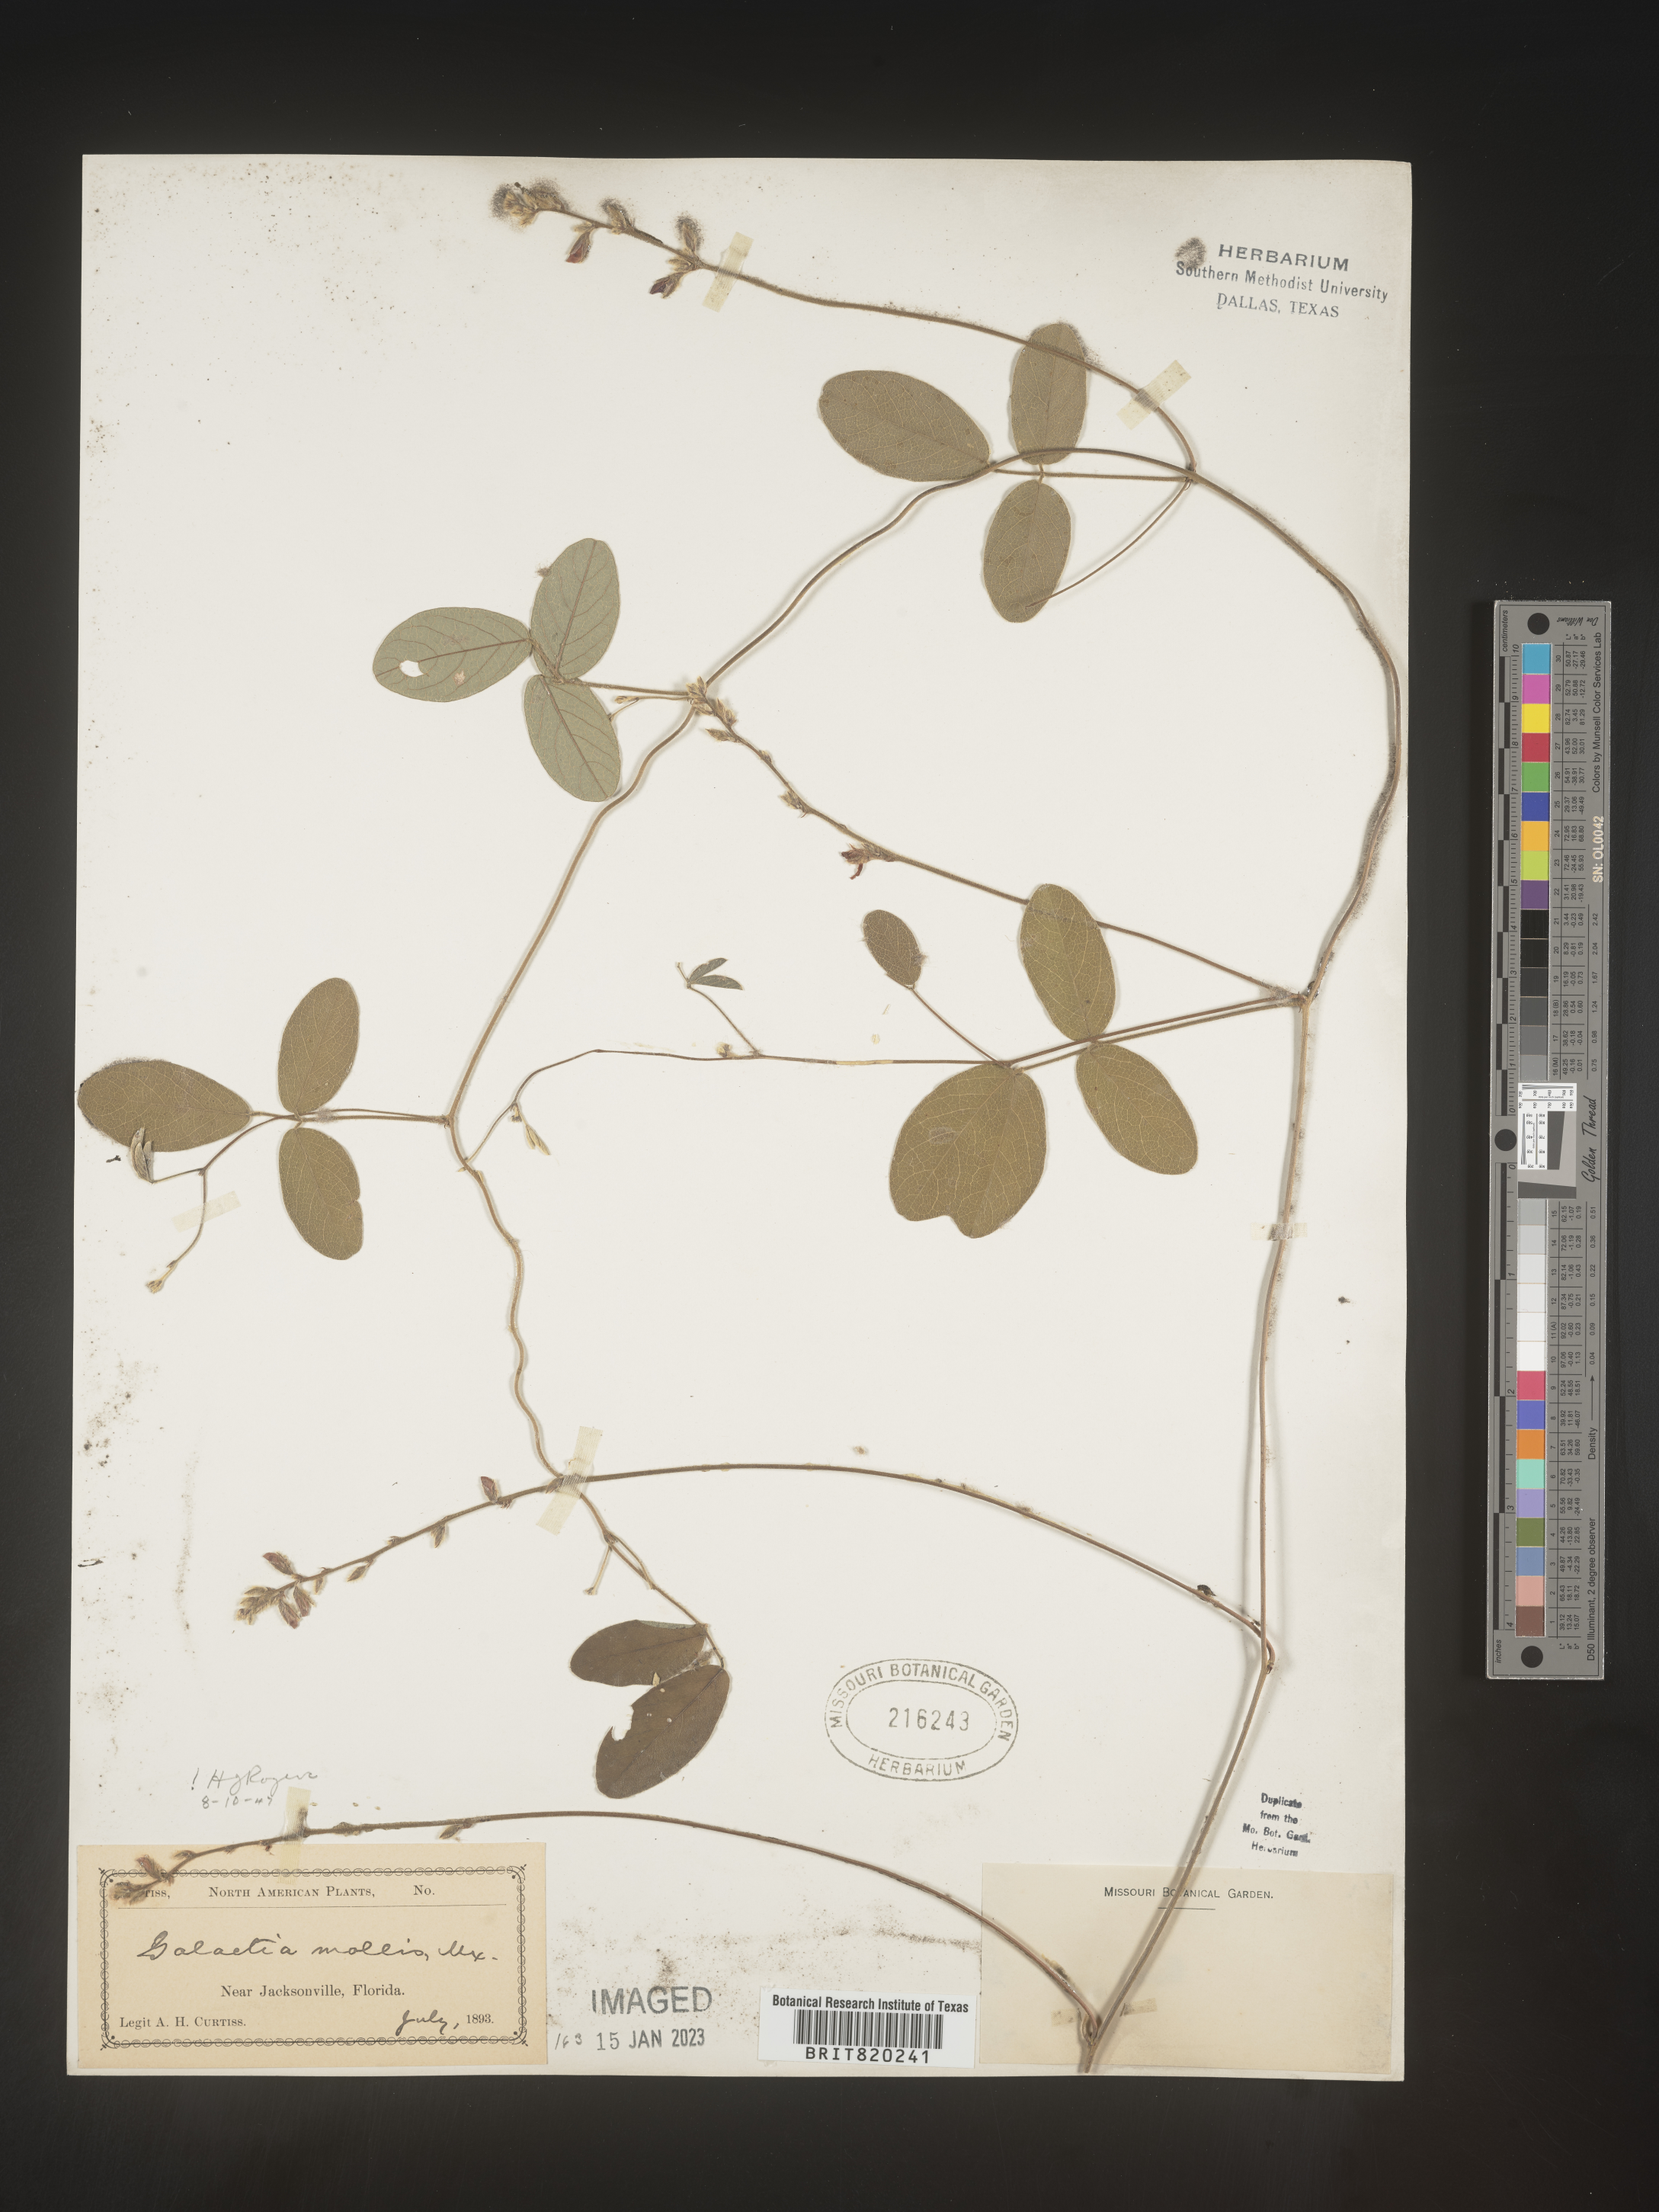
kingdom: Plantae
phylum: Tracheophyta
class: Magnoliopsida
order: Fabales
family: Fabaceae
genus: Galactia
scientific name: Galactia mollis
